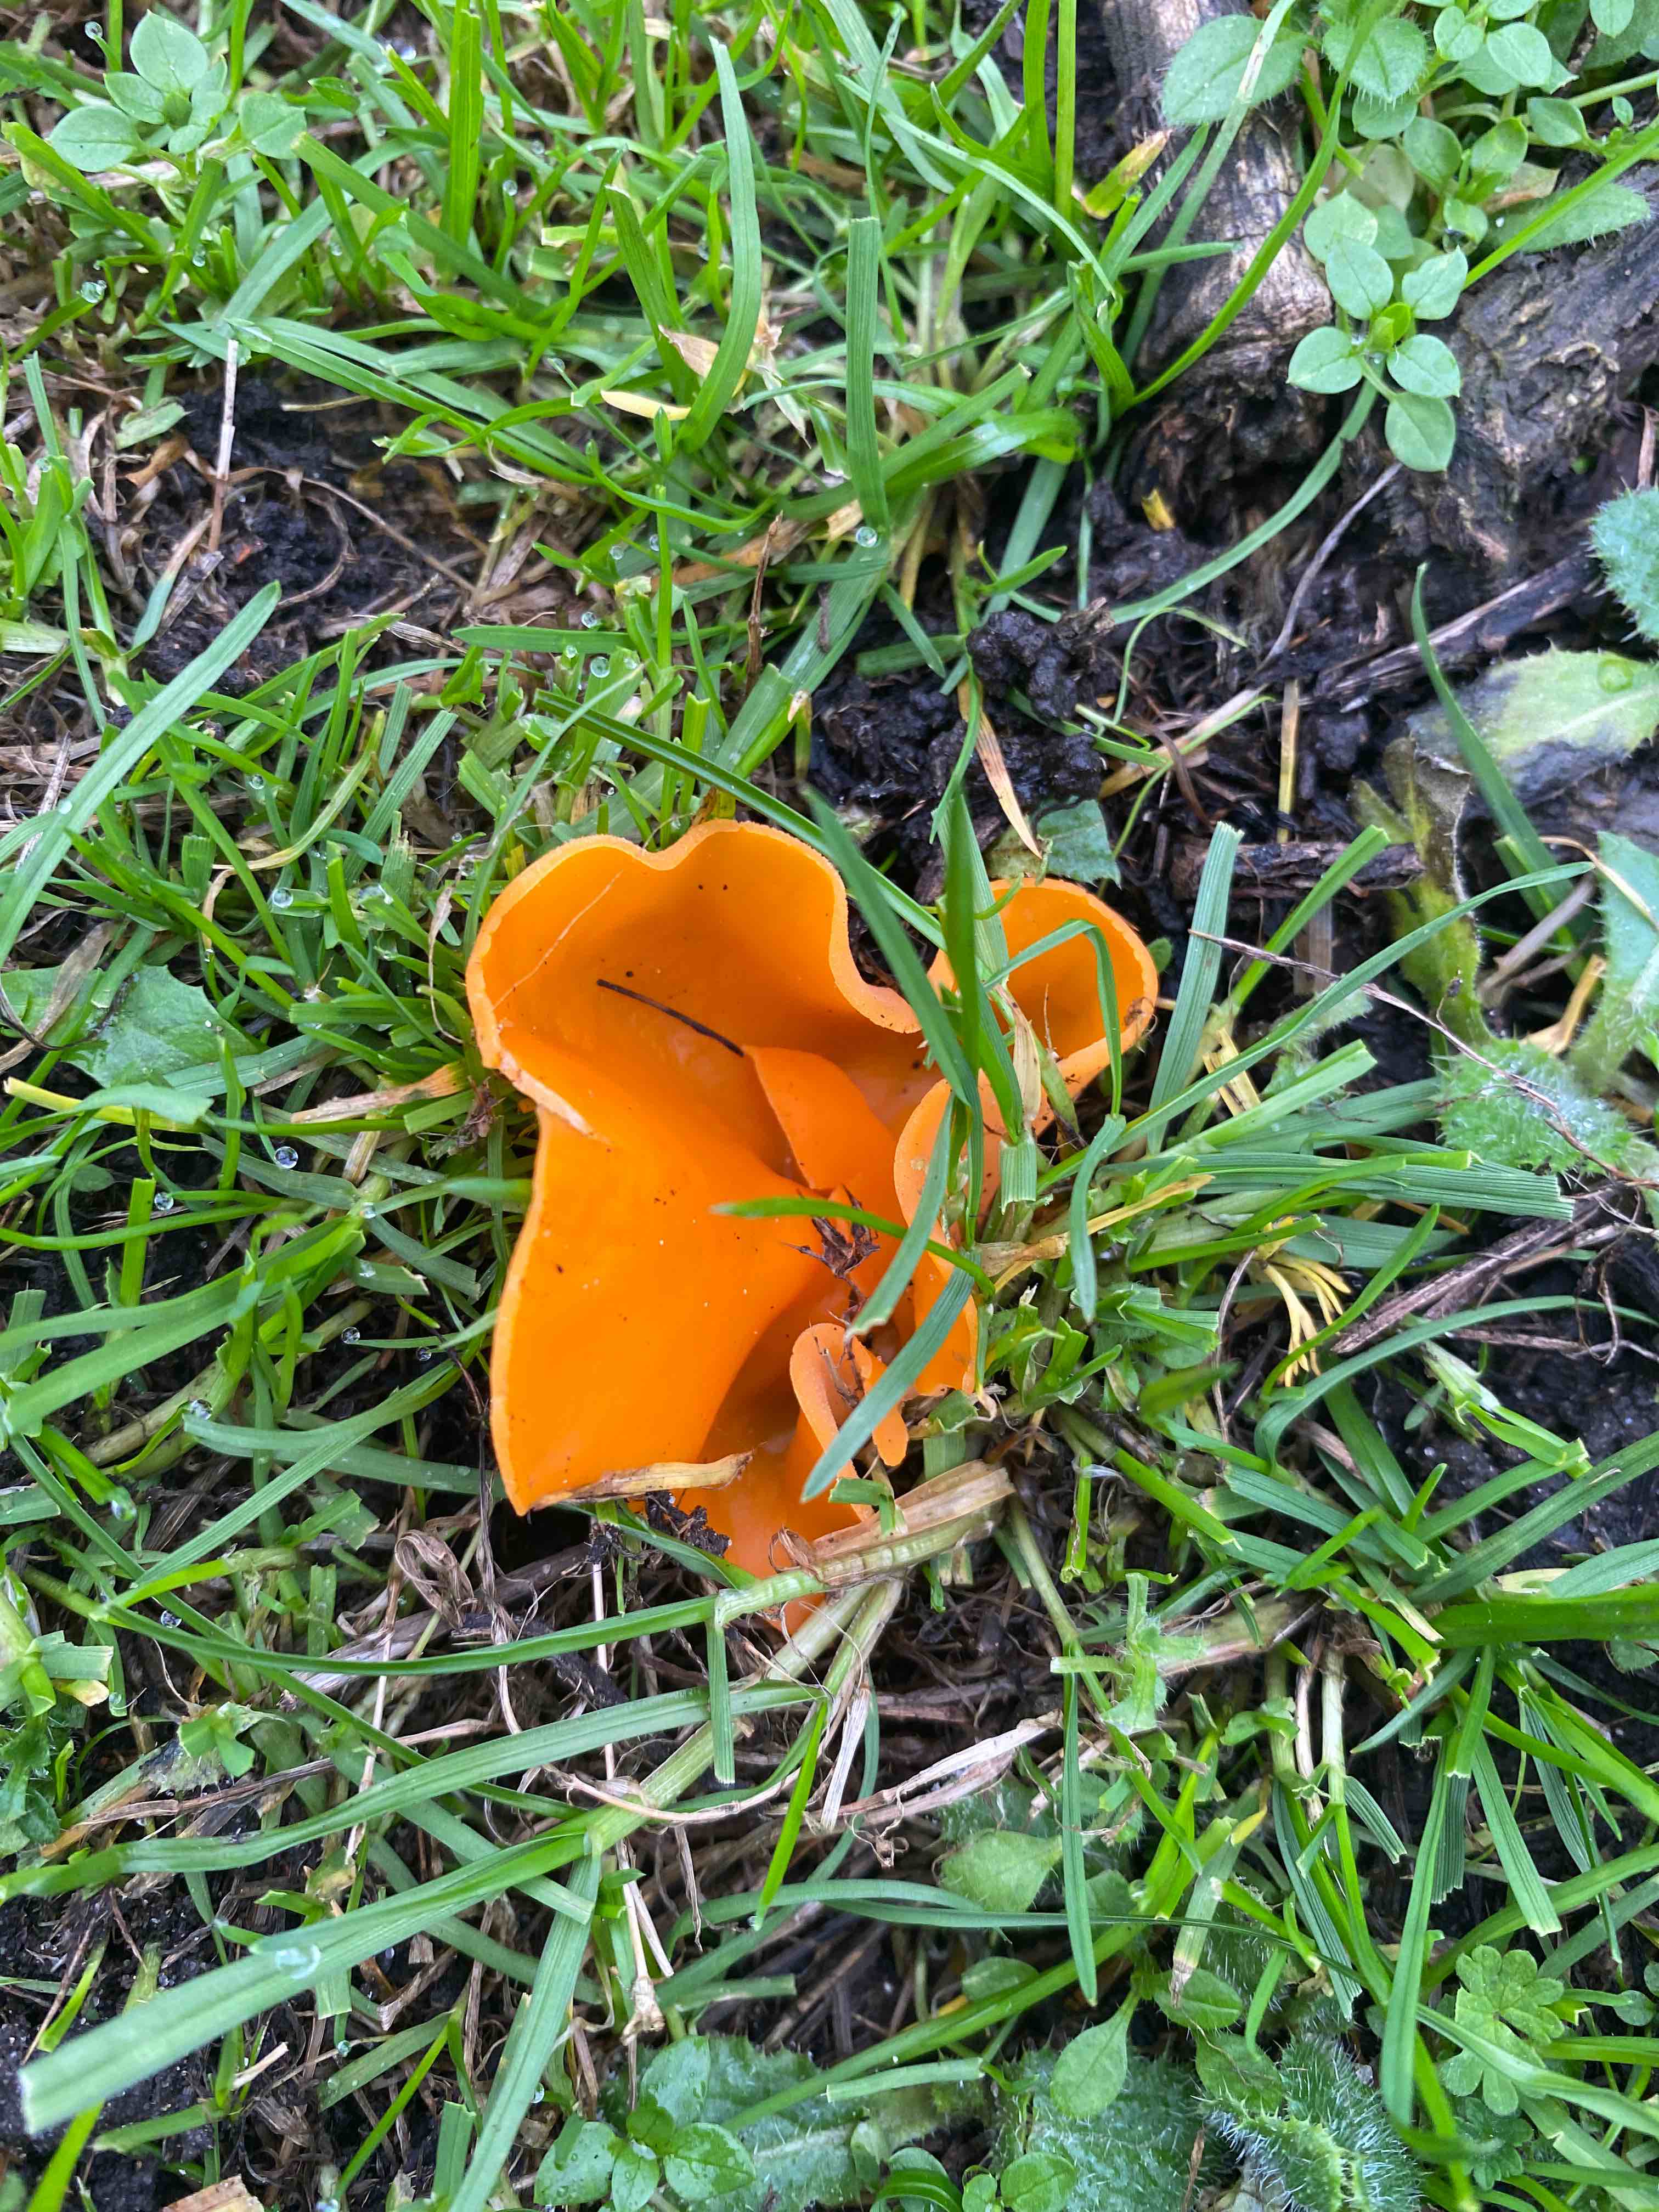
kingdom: Fungi
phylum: Ascomycota
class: Pezizomycetes
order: Pezizales
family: Pyronemataceae
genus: Aleuria
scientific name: Aleuria aurantia
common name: almindelig orangebæger
